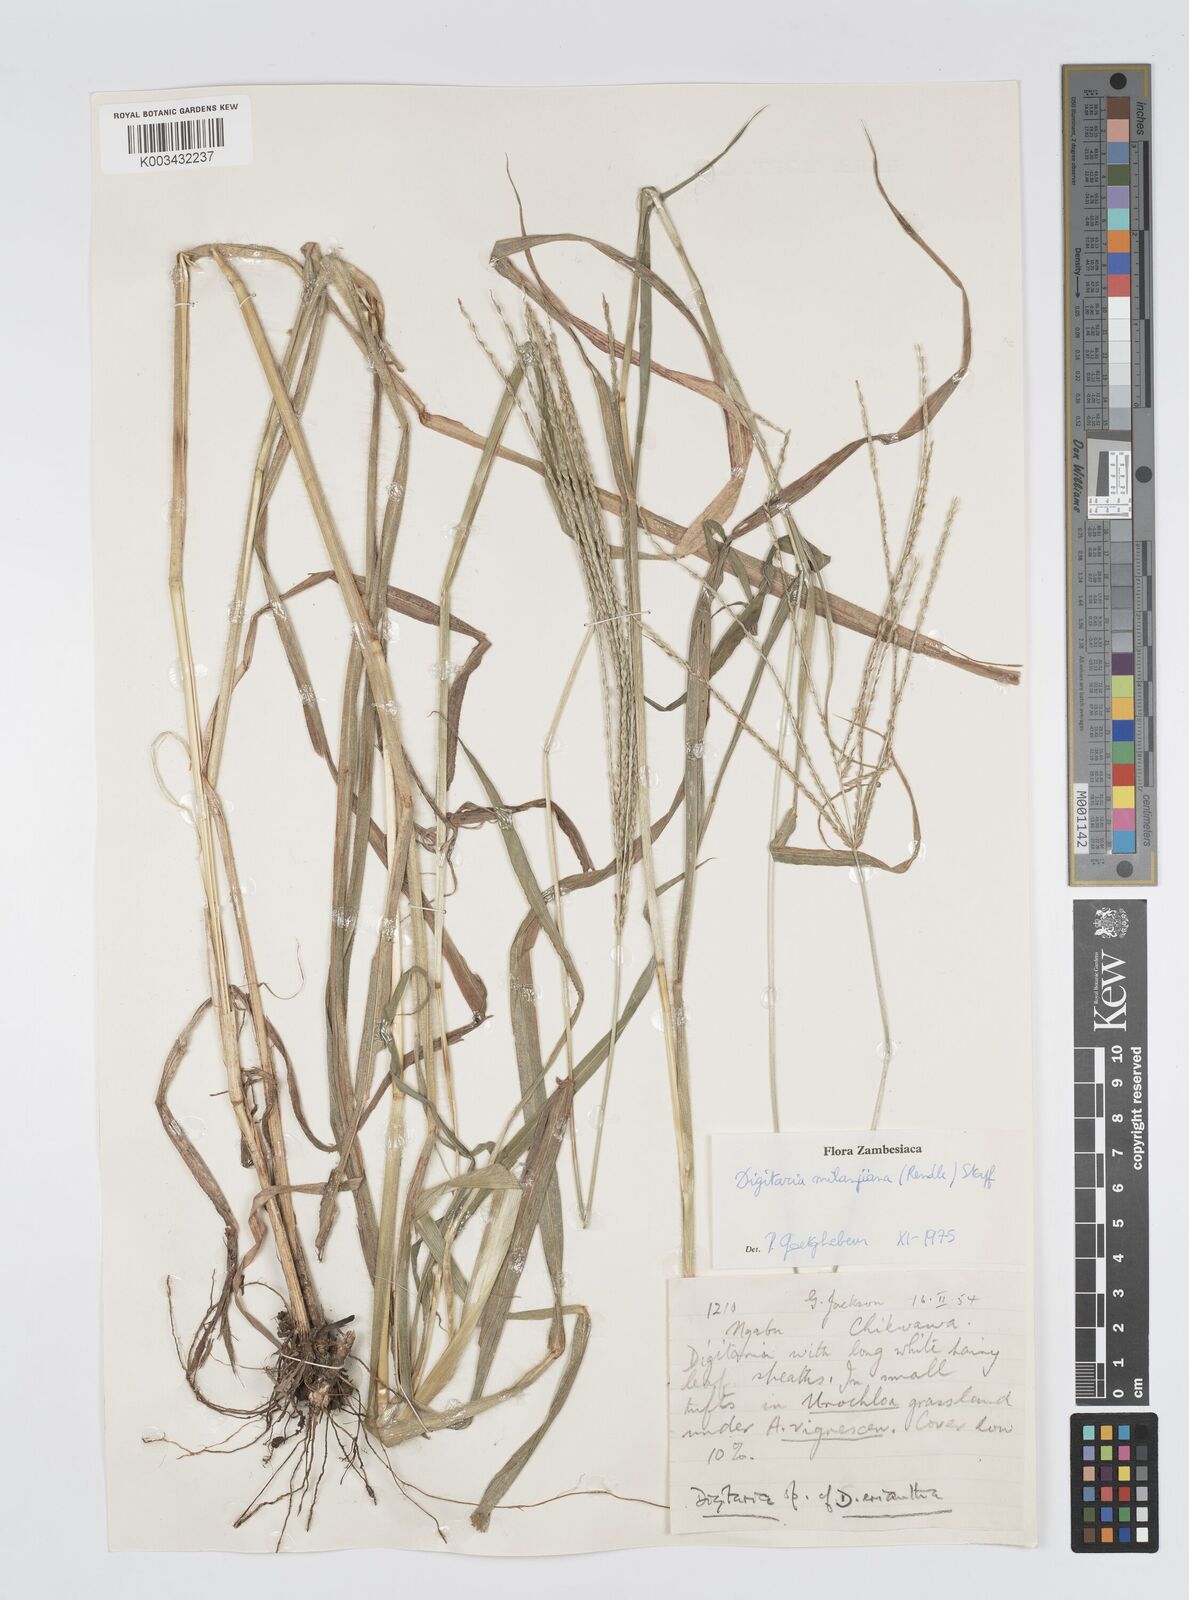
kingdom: Plantae
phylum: Tracheophyta
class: Liliopsida
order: Poales
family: Poaceae
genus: Digitaria
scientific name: Digitaria milanjiana
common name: Madagascar crabgrass
